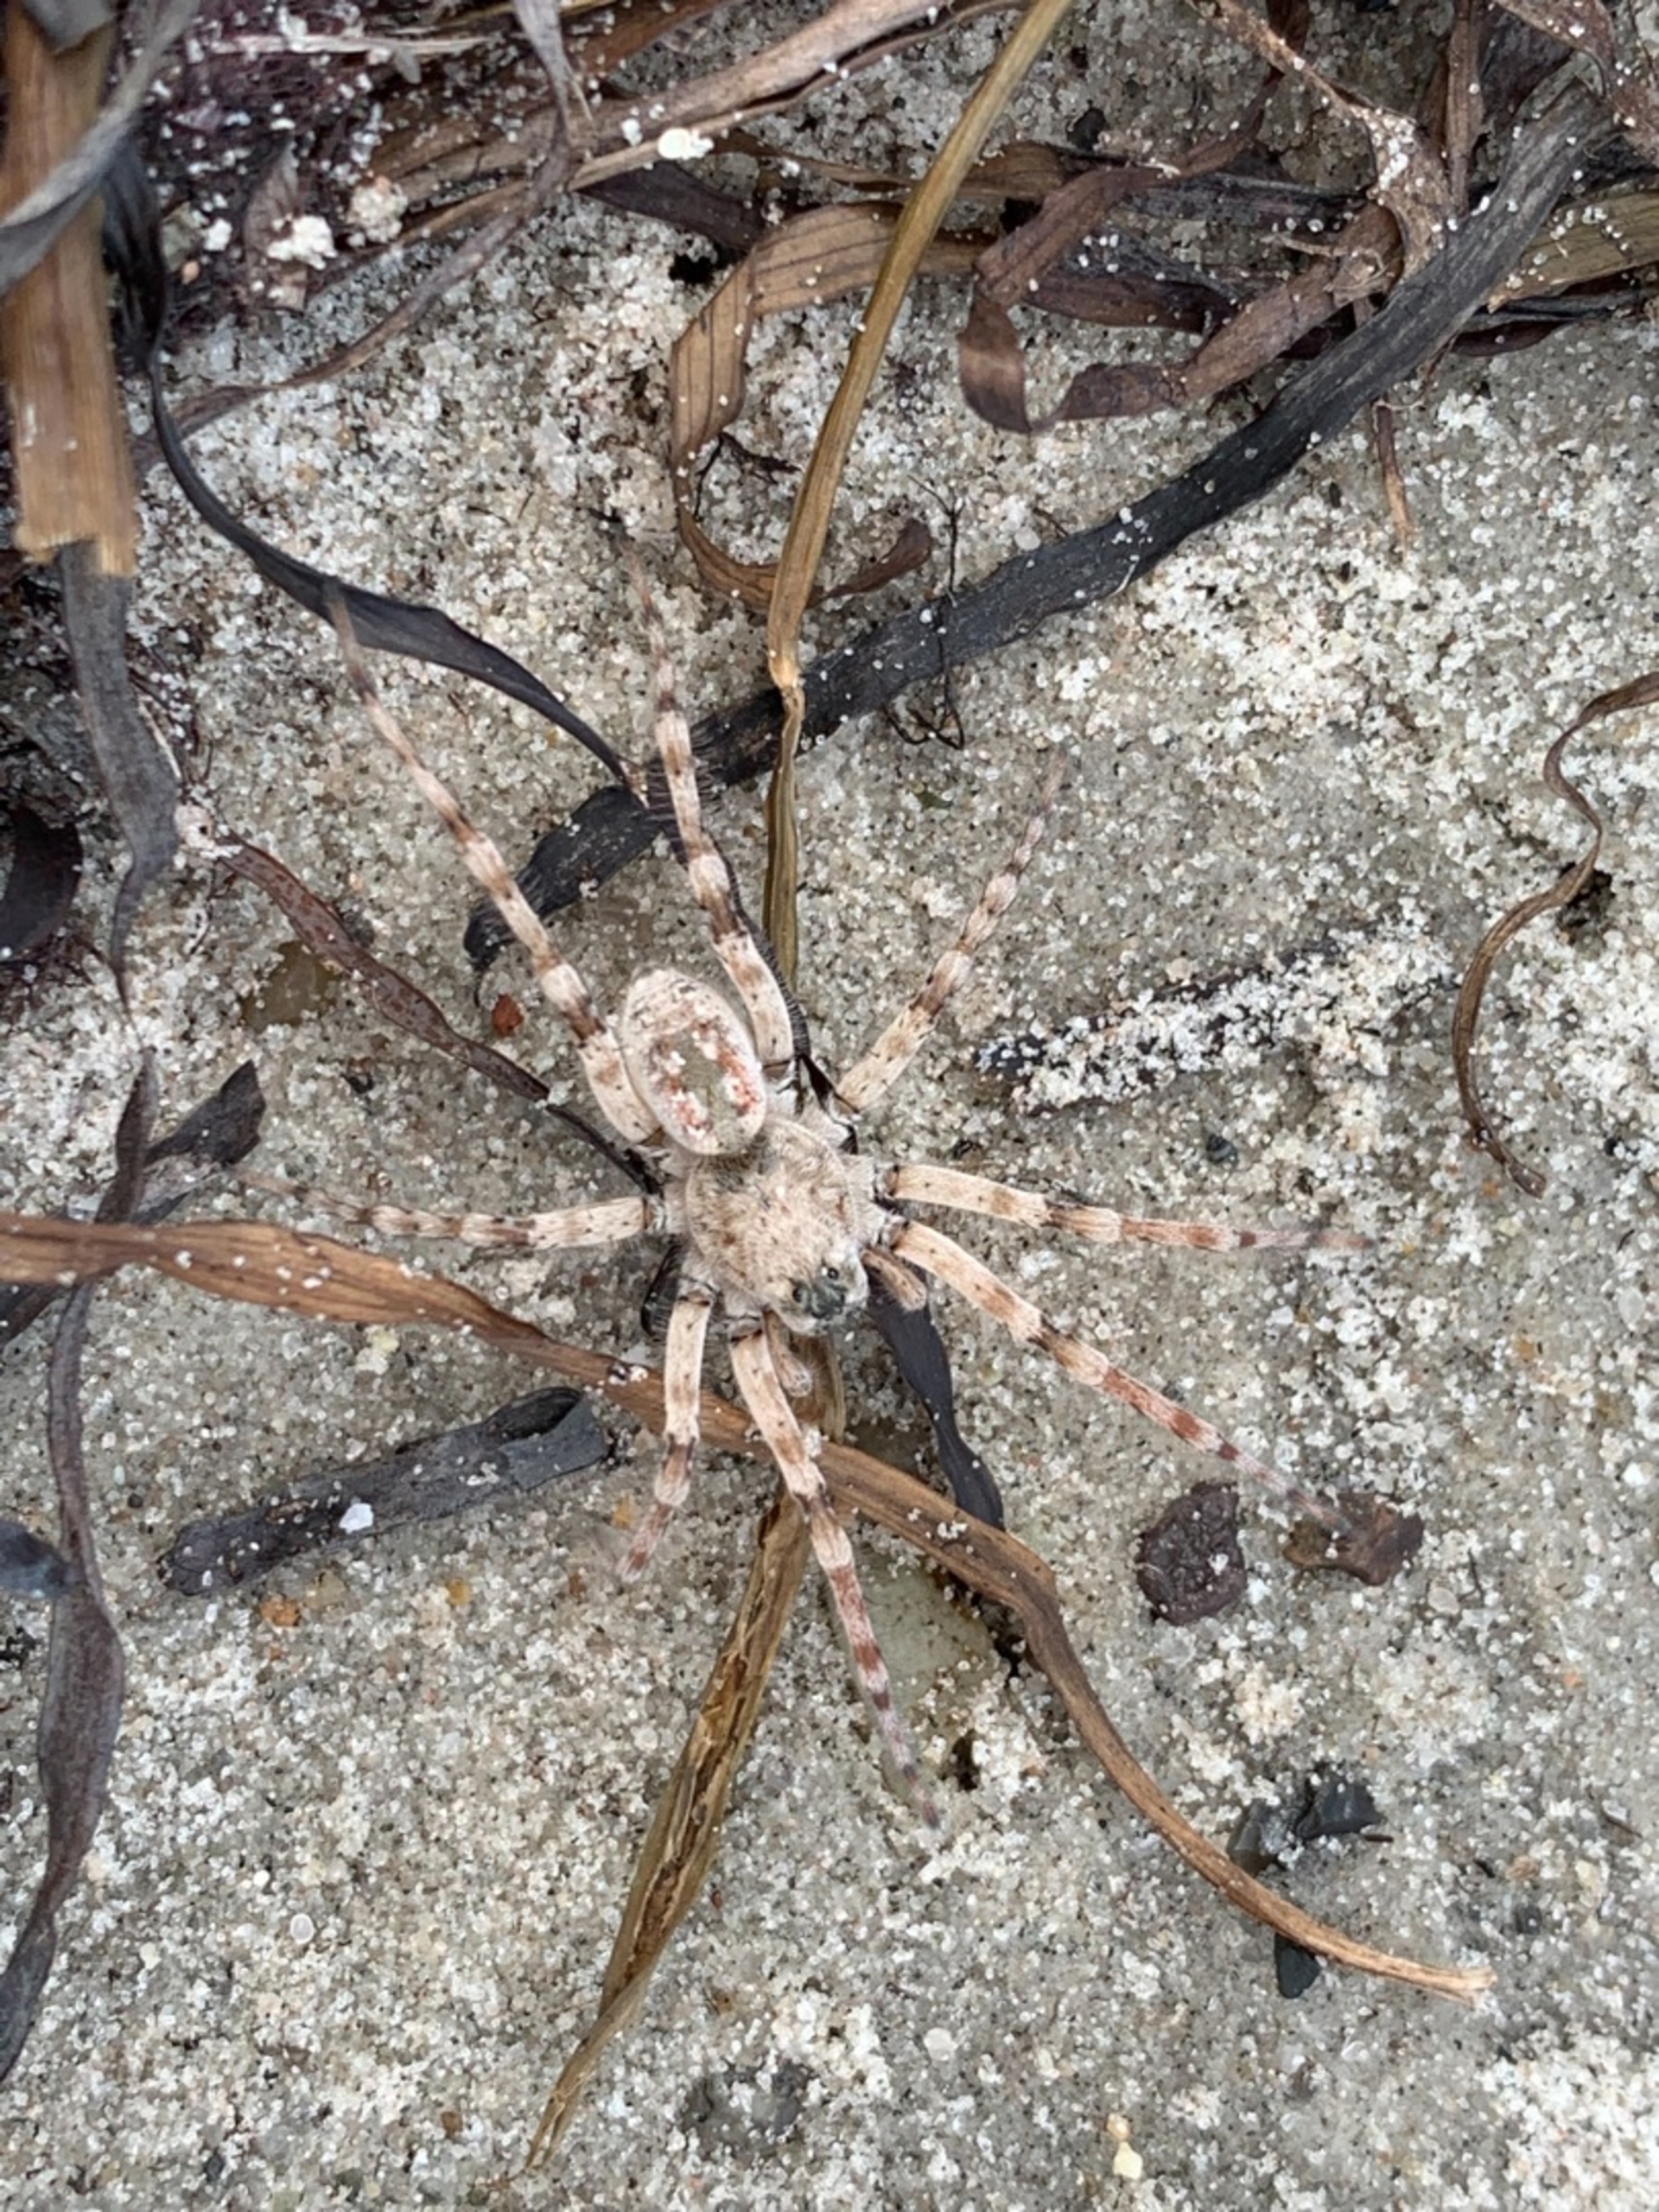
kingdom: Animalia
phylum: Arthropoda
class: Arachnida
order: Araneae
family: Lycosidae
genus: Arctosa
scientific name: Arctosa cinerea
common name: Sandgraveedderkop
